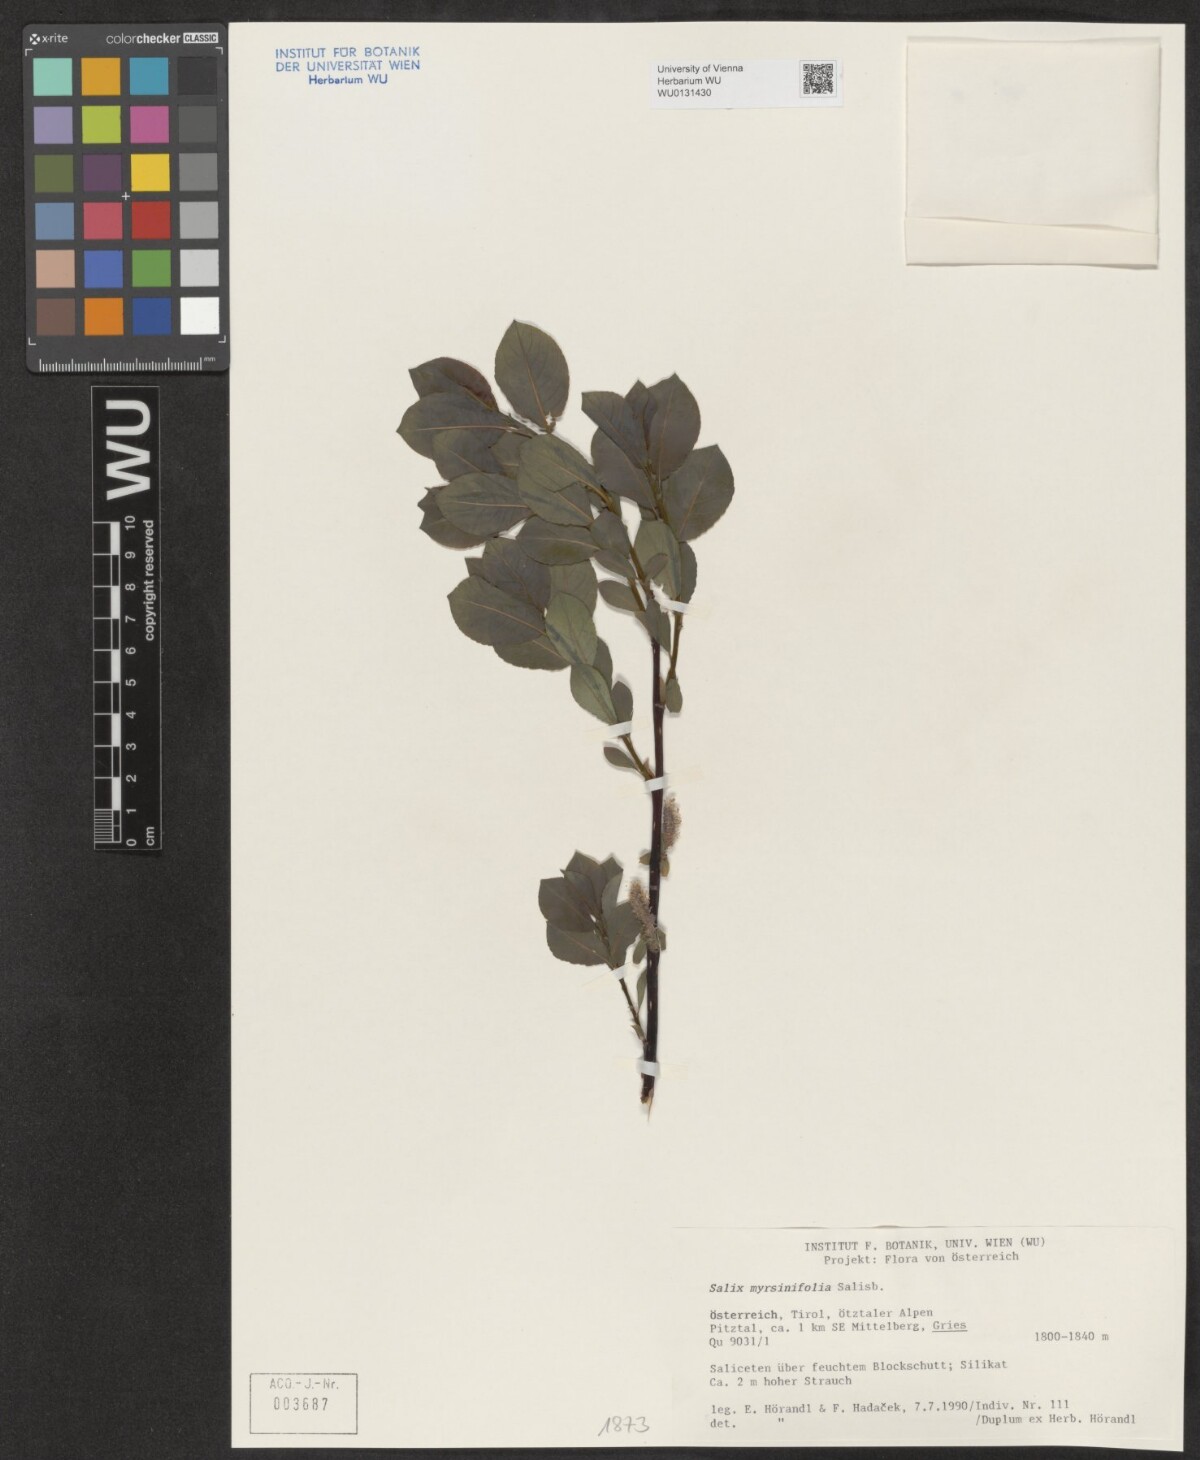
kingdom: Plantae
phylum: Tracheophyta
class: Magnoliopsida
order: Malpighiales
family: Salicaceae
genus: Salix
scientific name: Salix myrsinifolia
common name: Dark-leaved willow
